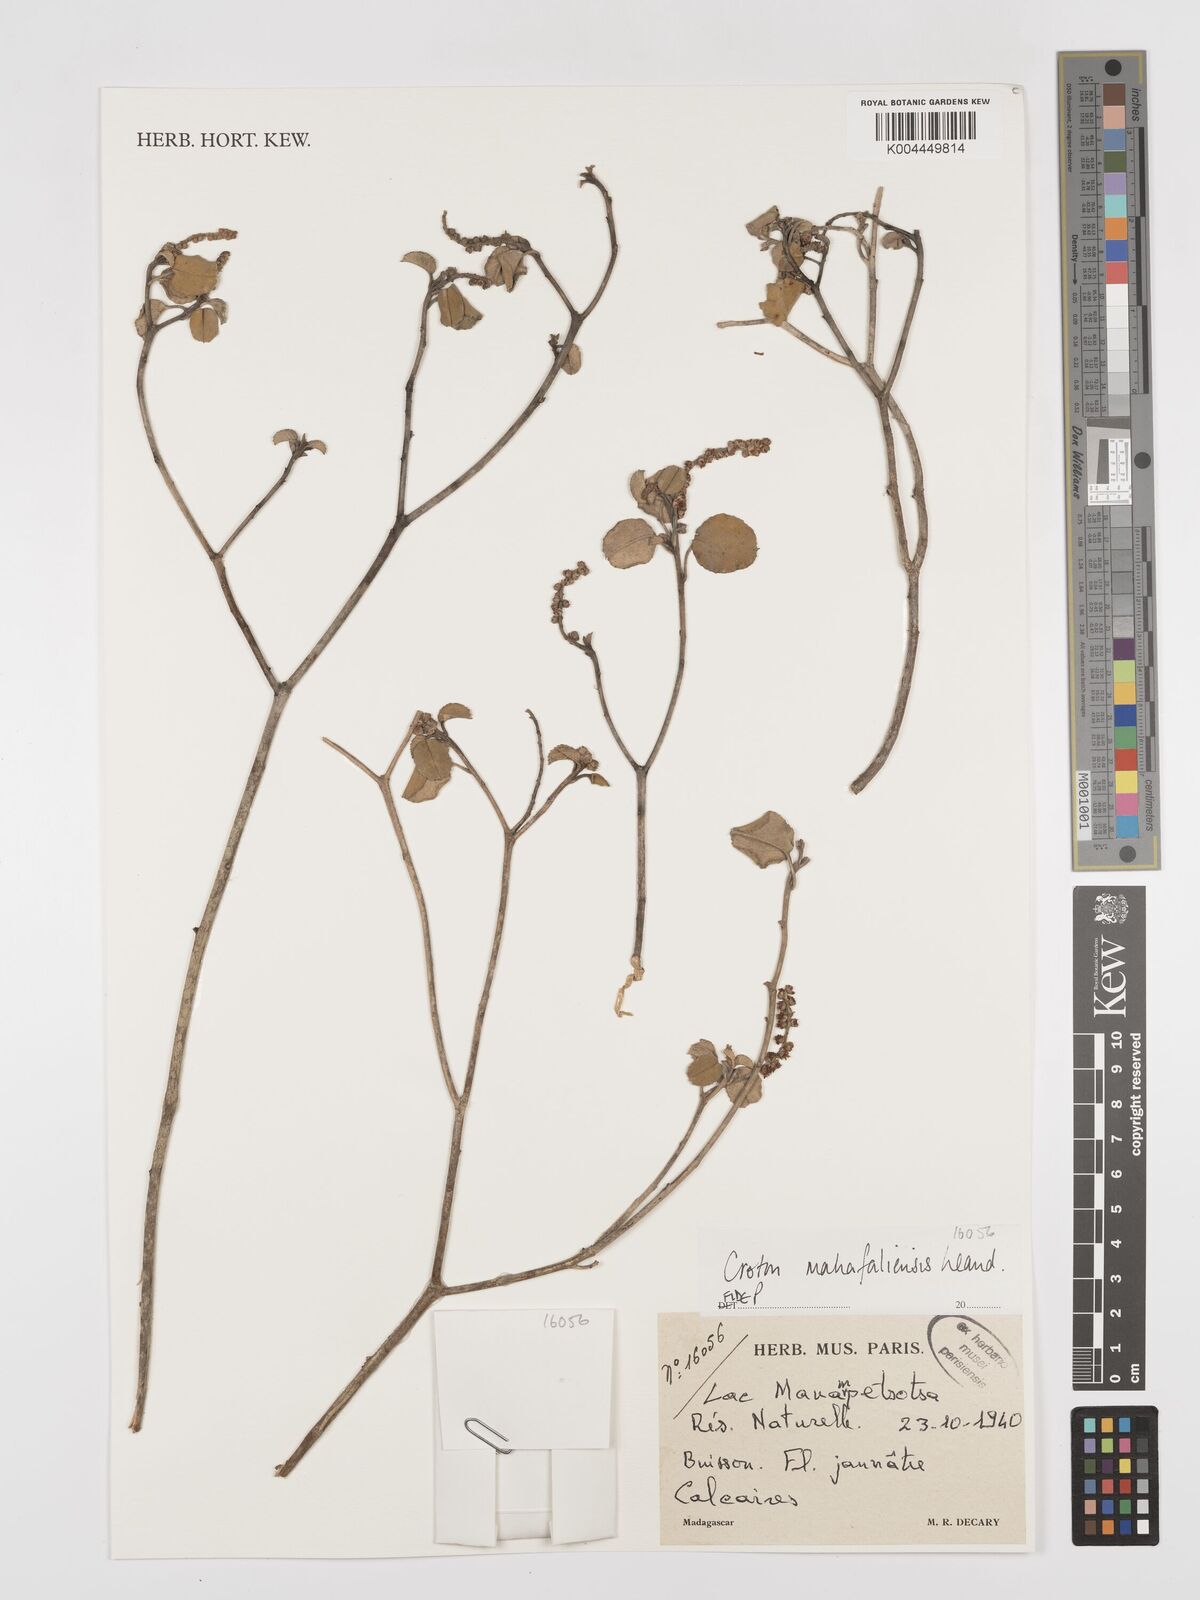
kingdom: Plantae
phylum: Tracheophyta
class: Magnoliopsida
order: Malpighiales
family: Euphorbiaceae
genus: Croton
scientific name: Croton cotoneaster
